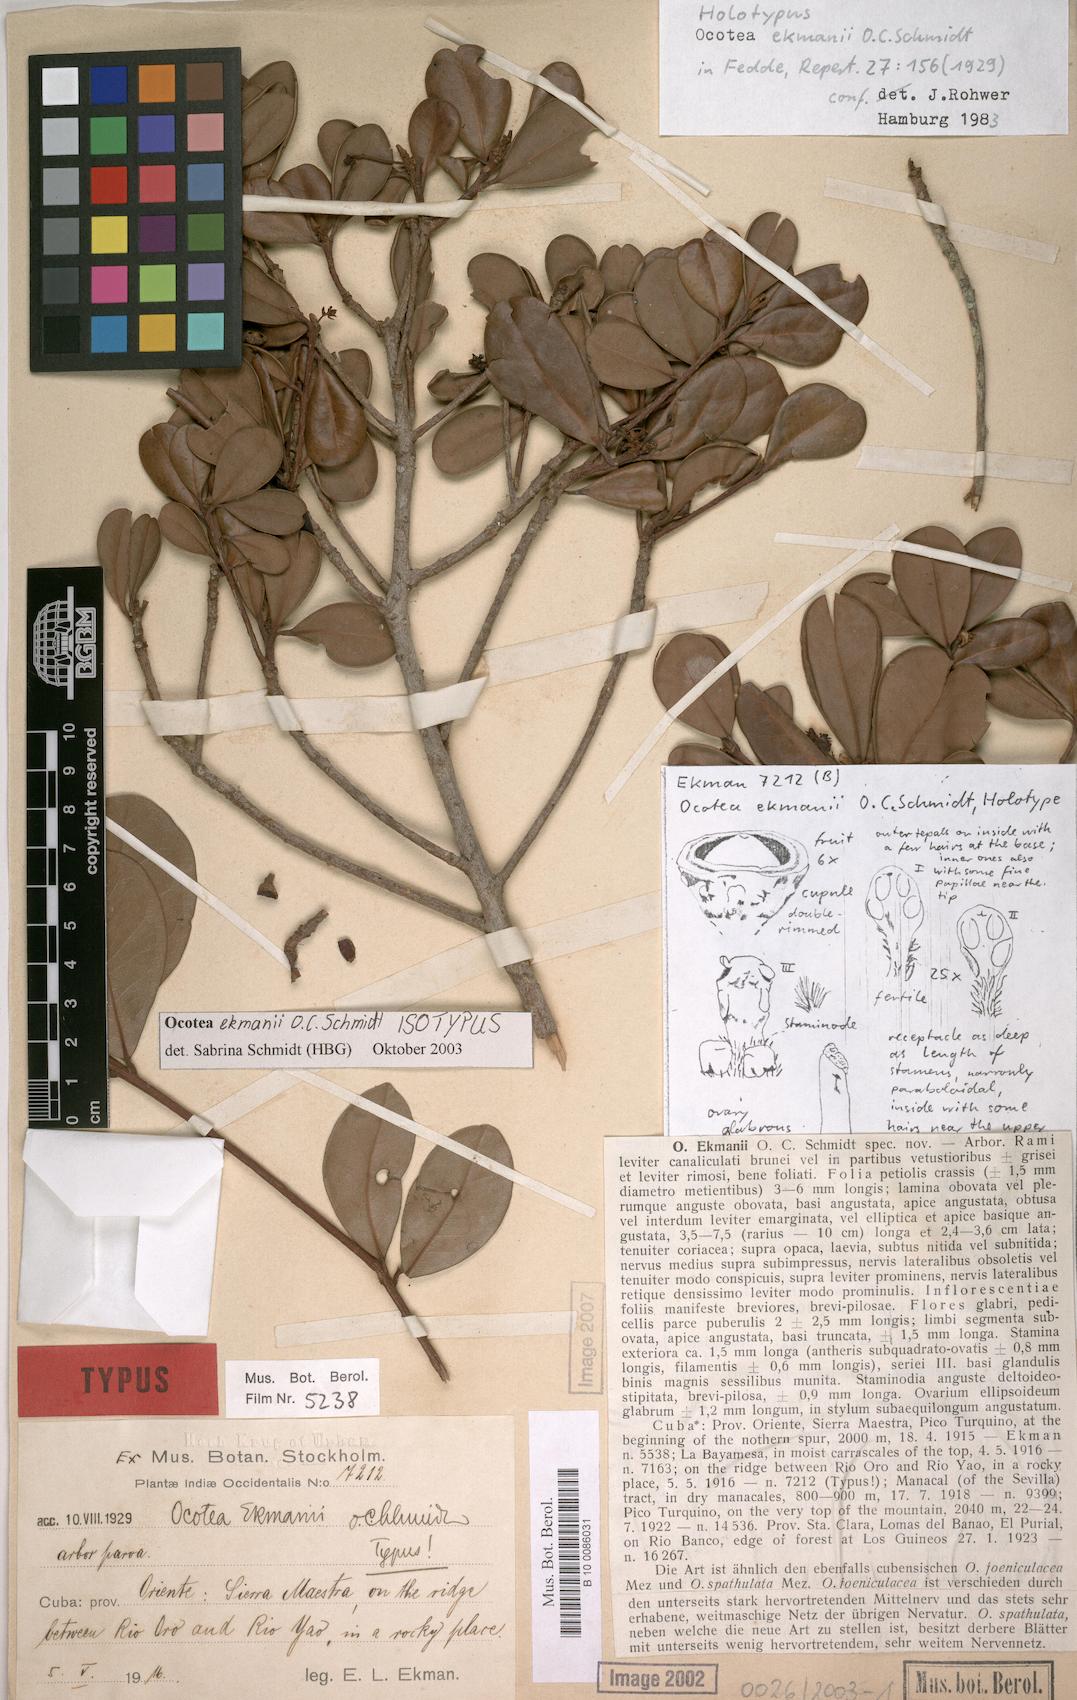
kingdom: Plantae
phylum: Tracheophyta
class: Magnoliopsida
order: Laurales
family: Lauraceae
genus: Ocotea
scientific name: Ocotea ekmanii
